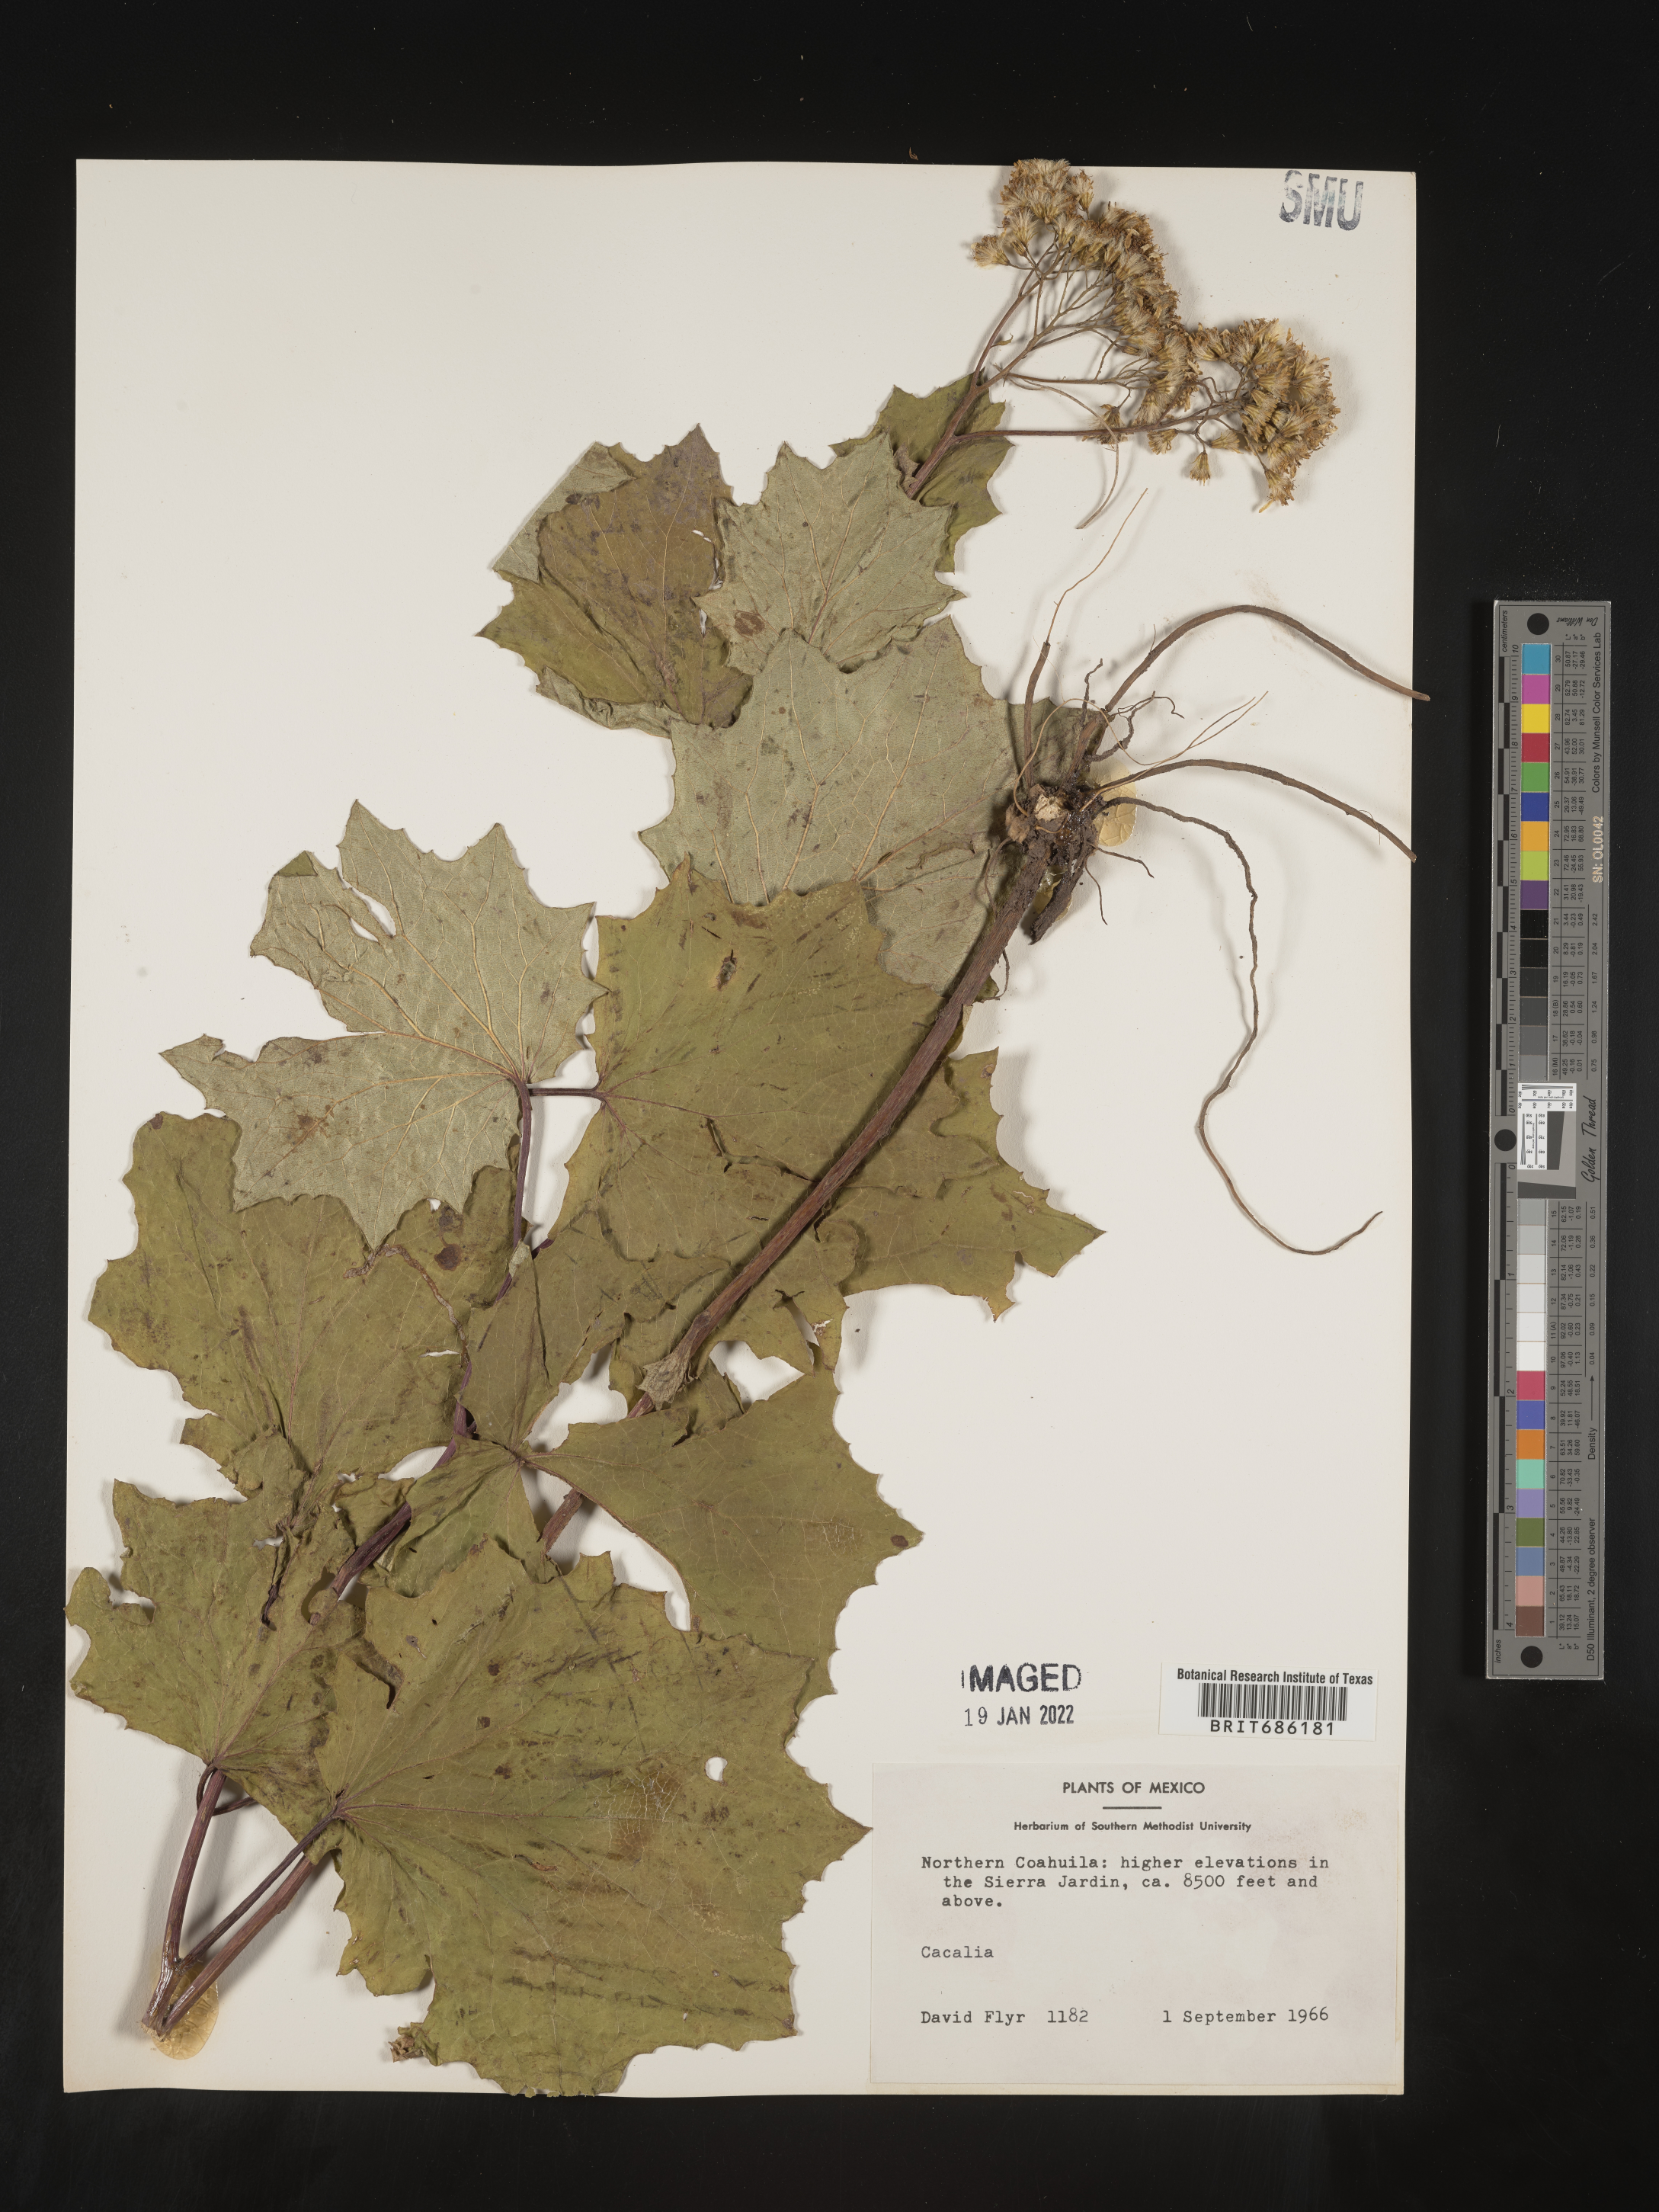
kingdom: Plantae
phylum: Tracheophyta
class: Magnoliopsida
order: Asterales
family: Asteraceae
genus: Cacalia
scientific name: Cacalia
